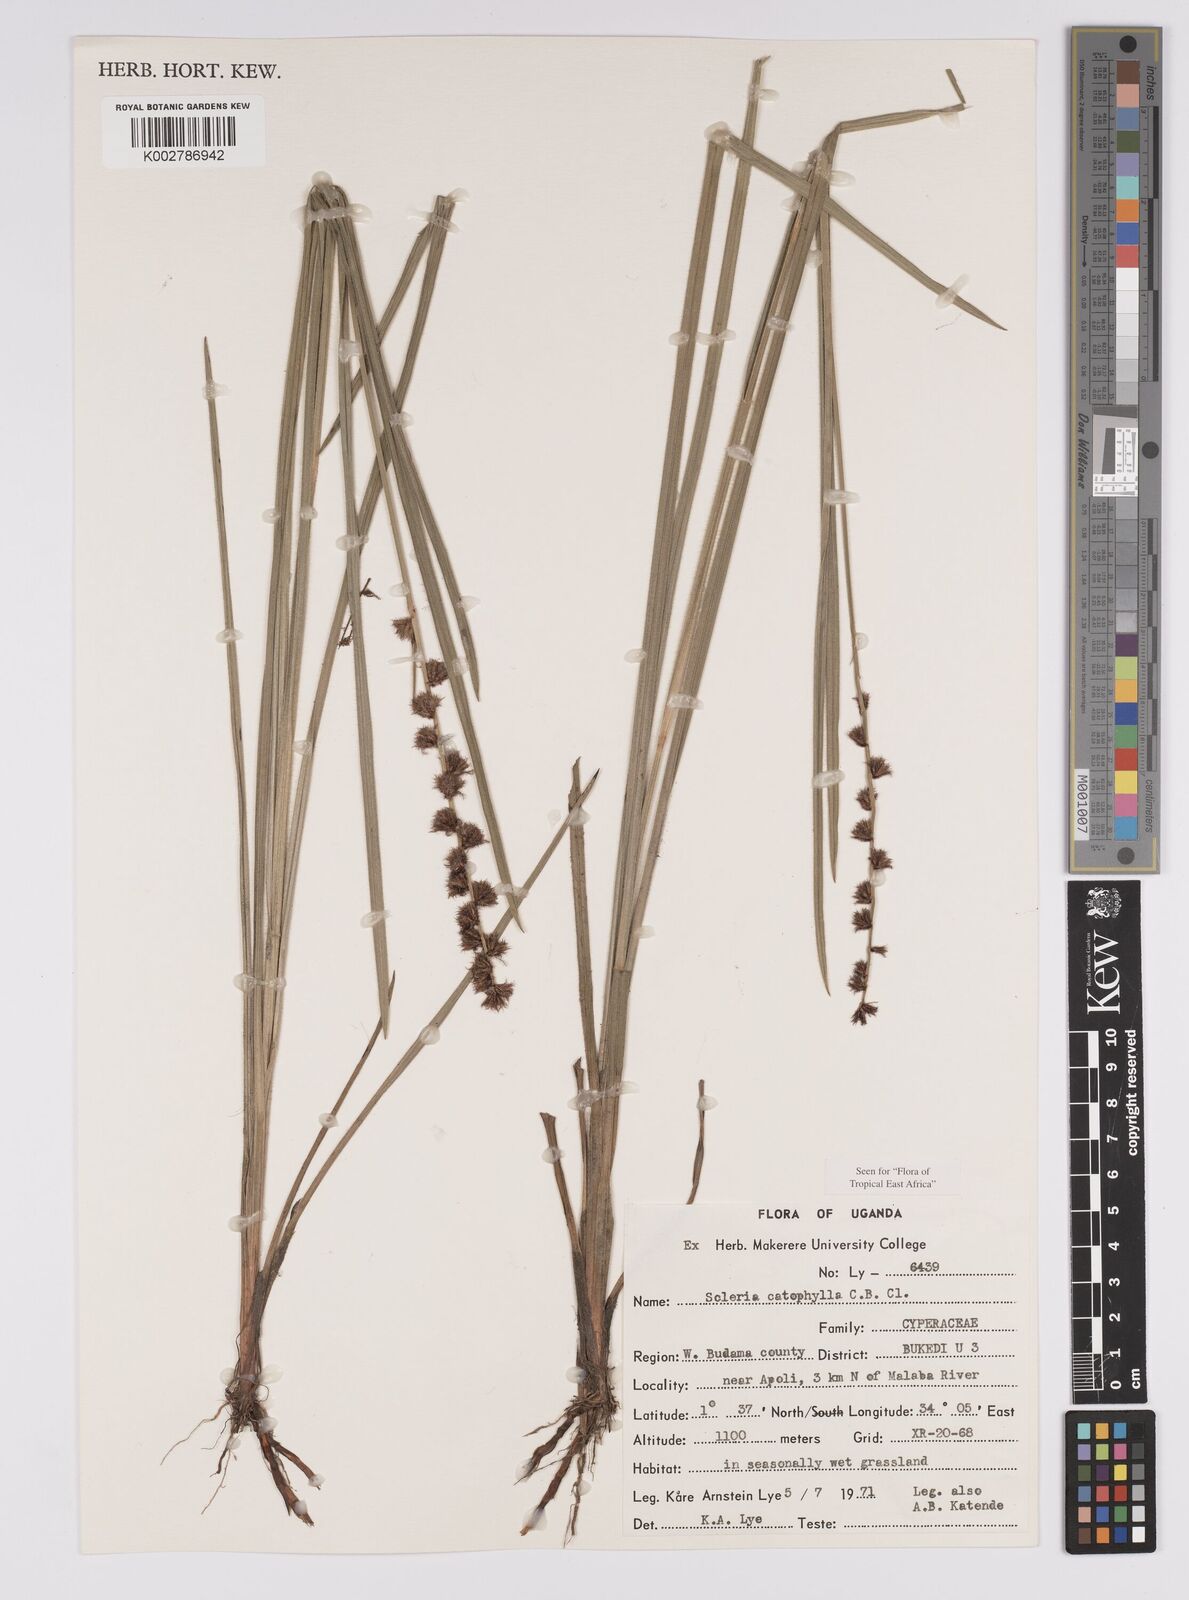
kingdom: Plantae
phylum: Tracheophyta
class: Liliopsida
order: Poales
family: Cyperaceae
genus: Scleria
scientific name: Scleria catophylla
